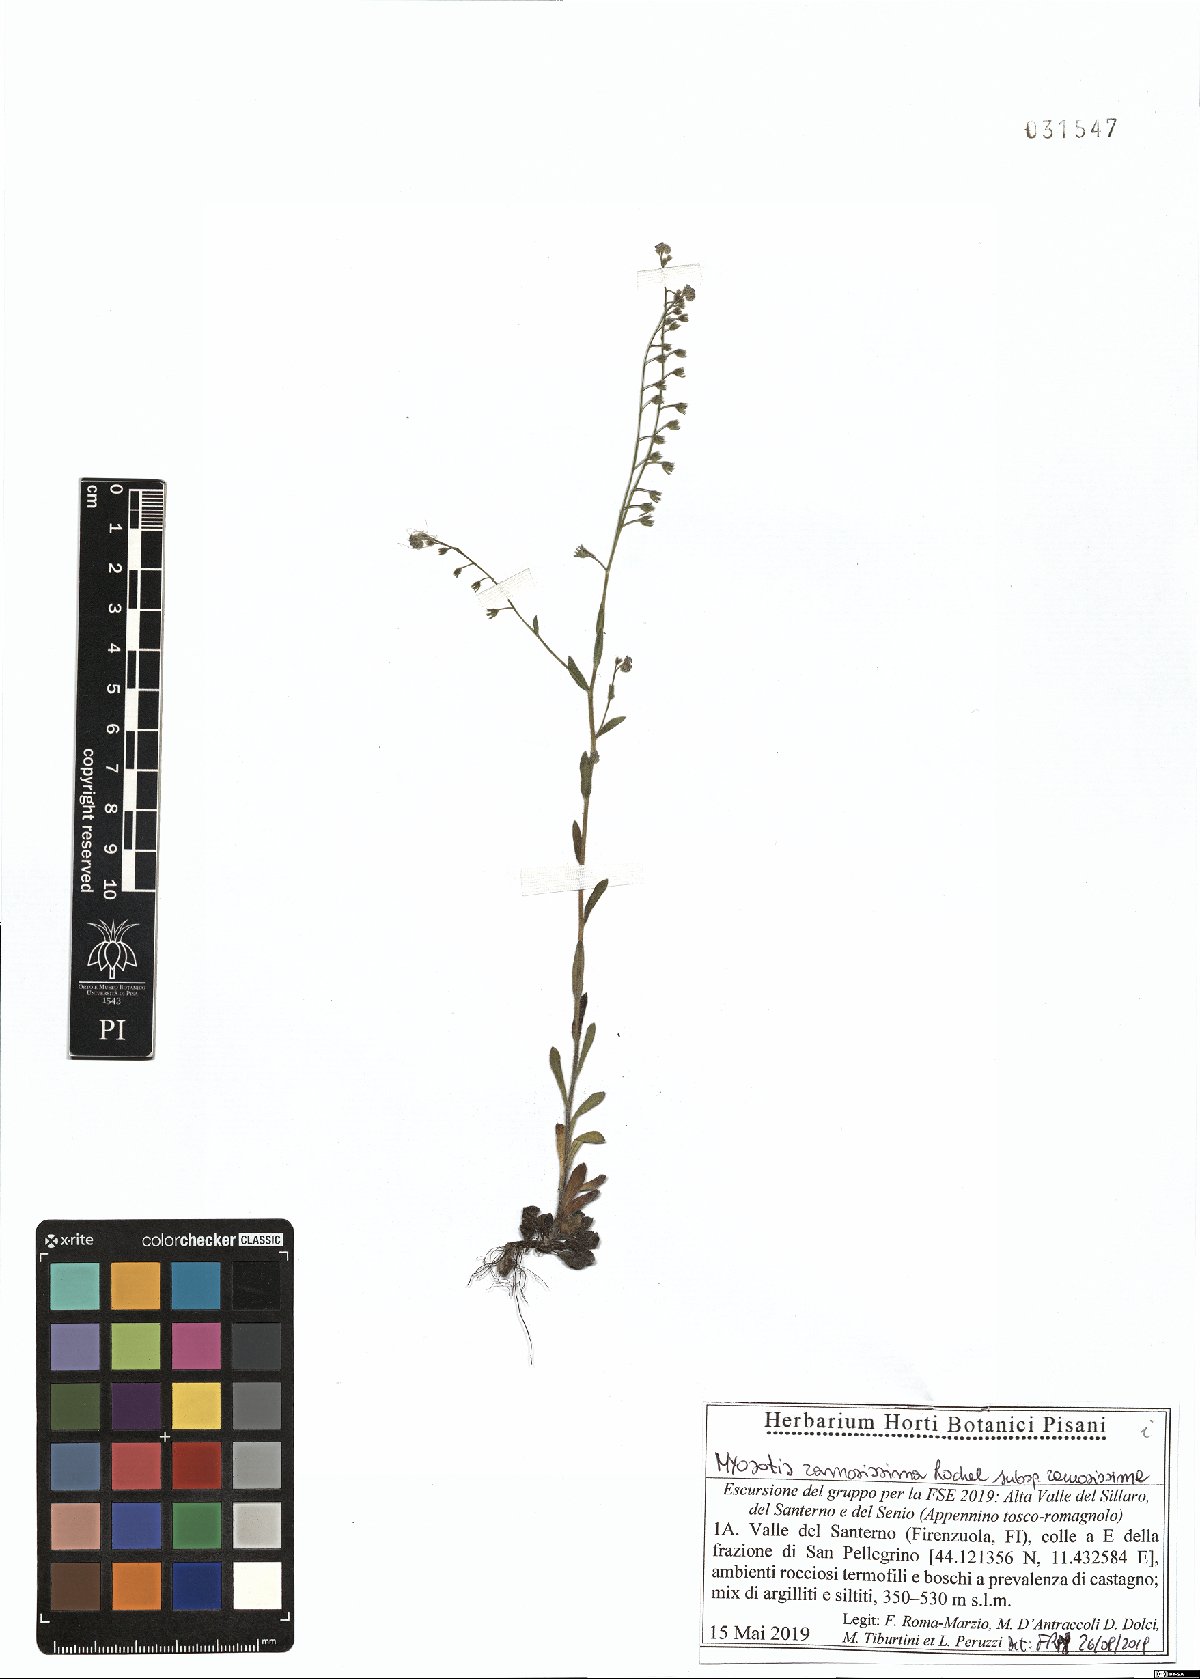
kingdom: Plantae
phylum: Tracheophyta
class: Magnoliopsida
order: Boraginales
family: Boraginaceae
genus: Myosotis
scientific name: Myosotis ramosissima
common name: Early forget-me-not
